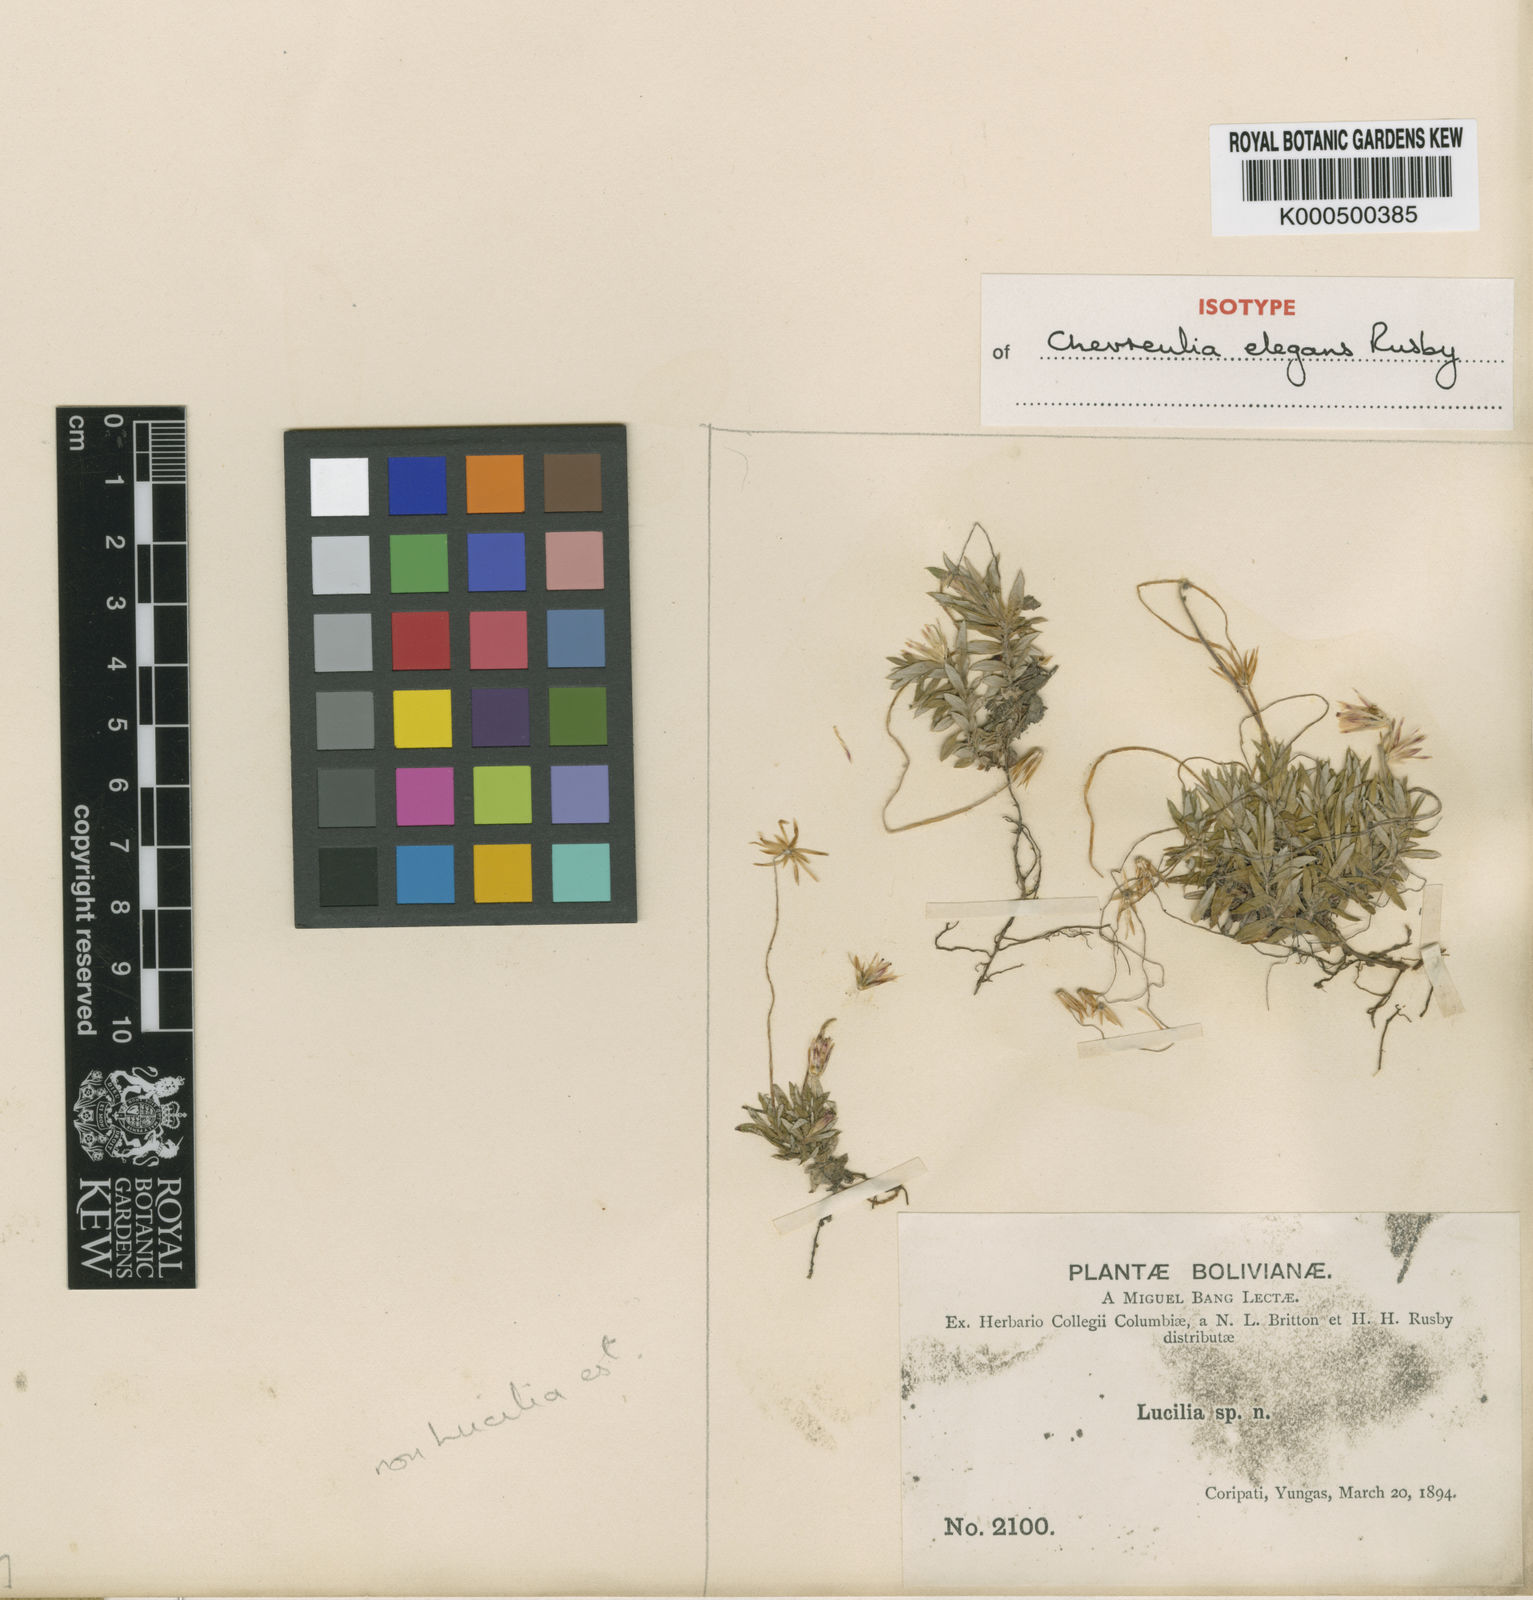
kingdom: Plantae
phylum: Tracheophyta
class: Magnoliopsida
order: Asterales
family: Asteraceae
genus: Chevreulia
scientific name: Chevreulia acuminata
